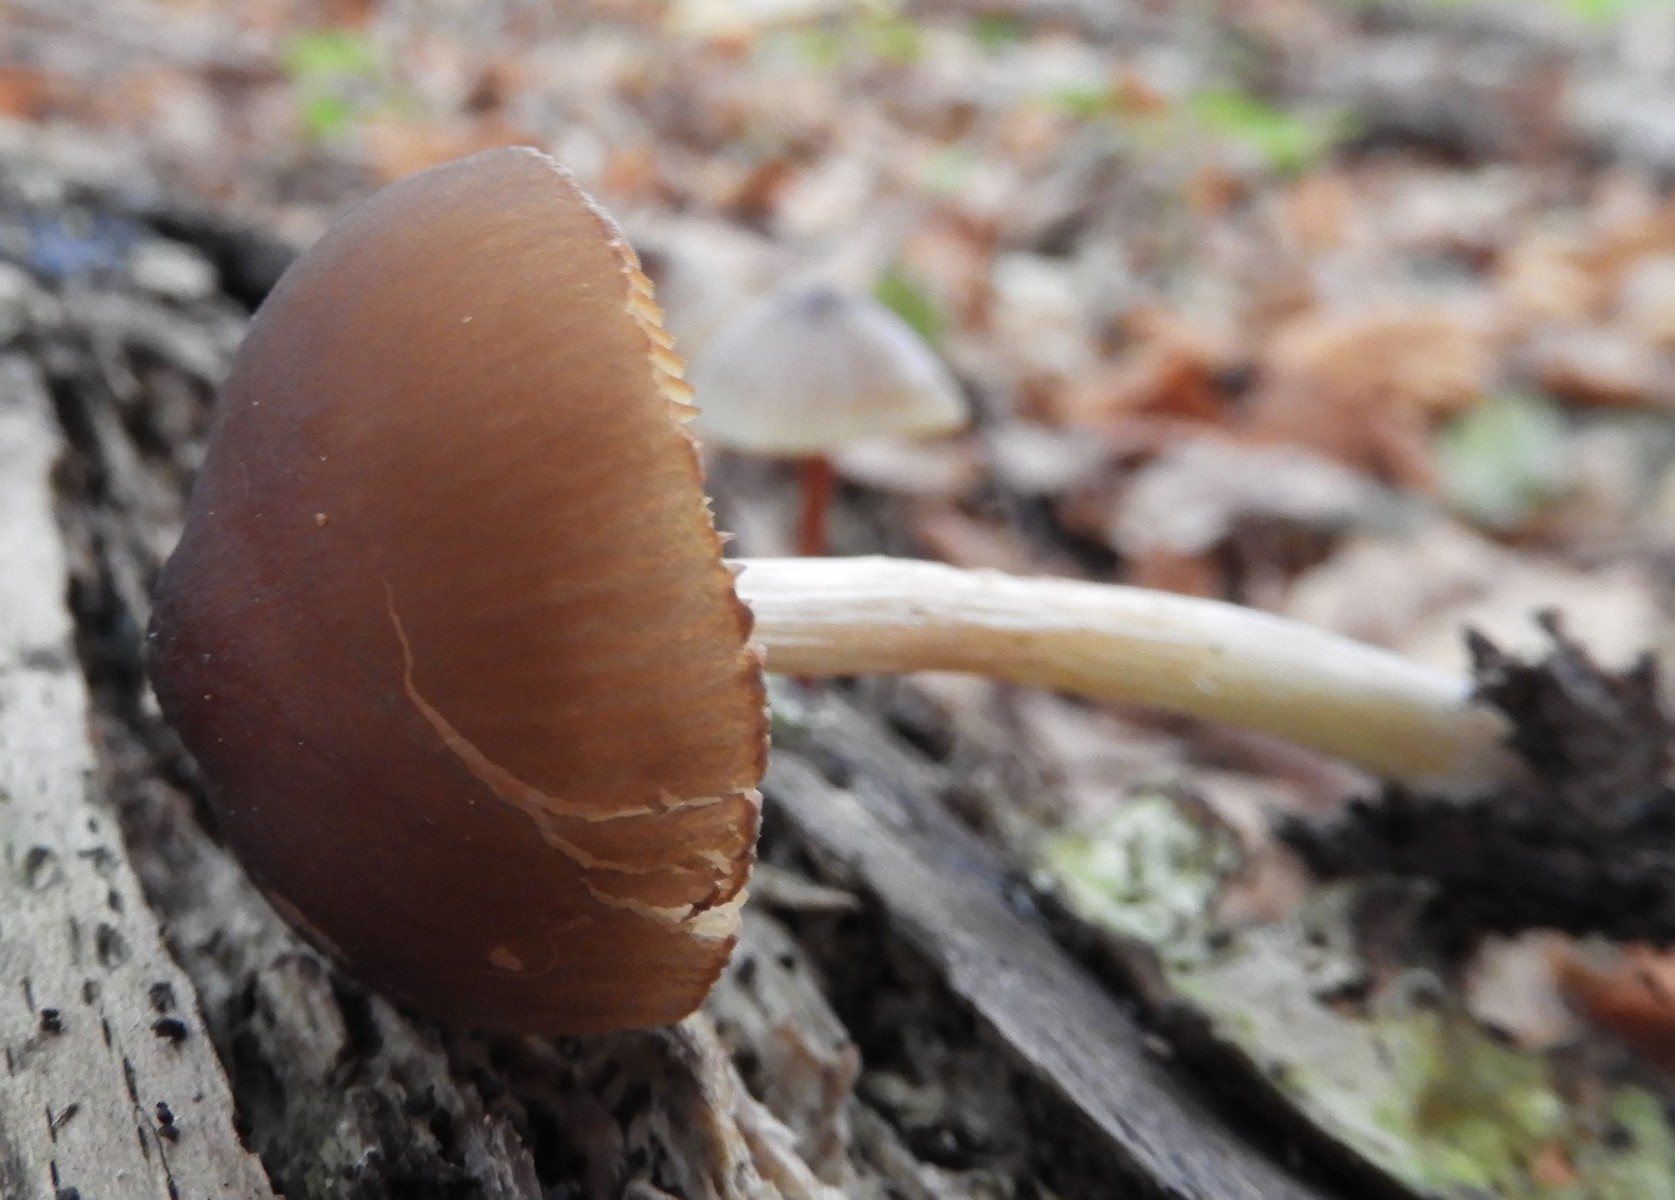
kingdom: Fungi
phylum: Basidiomycota
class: Agaricomycetes
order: Agaricales
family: Pluteaceae
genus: Pluteus
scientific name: Pluteus phlebophorus
